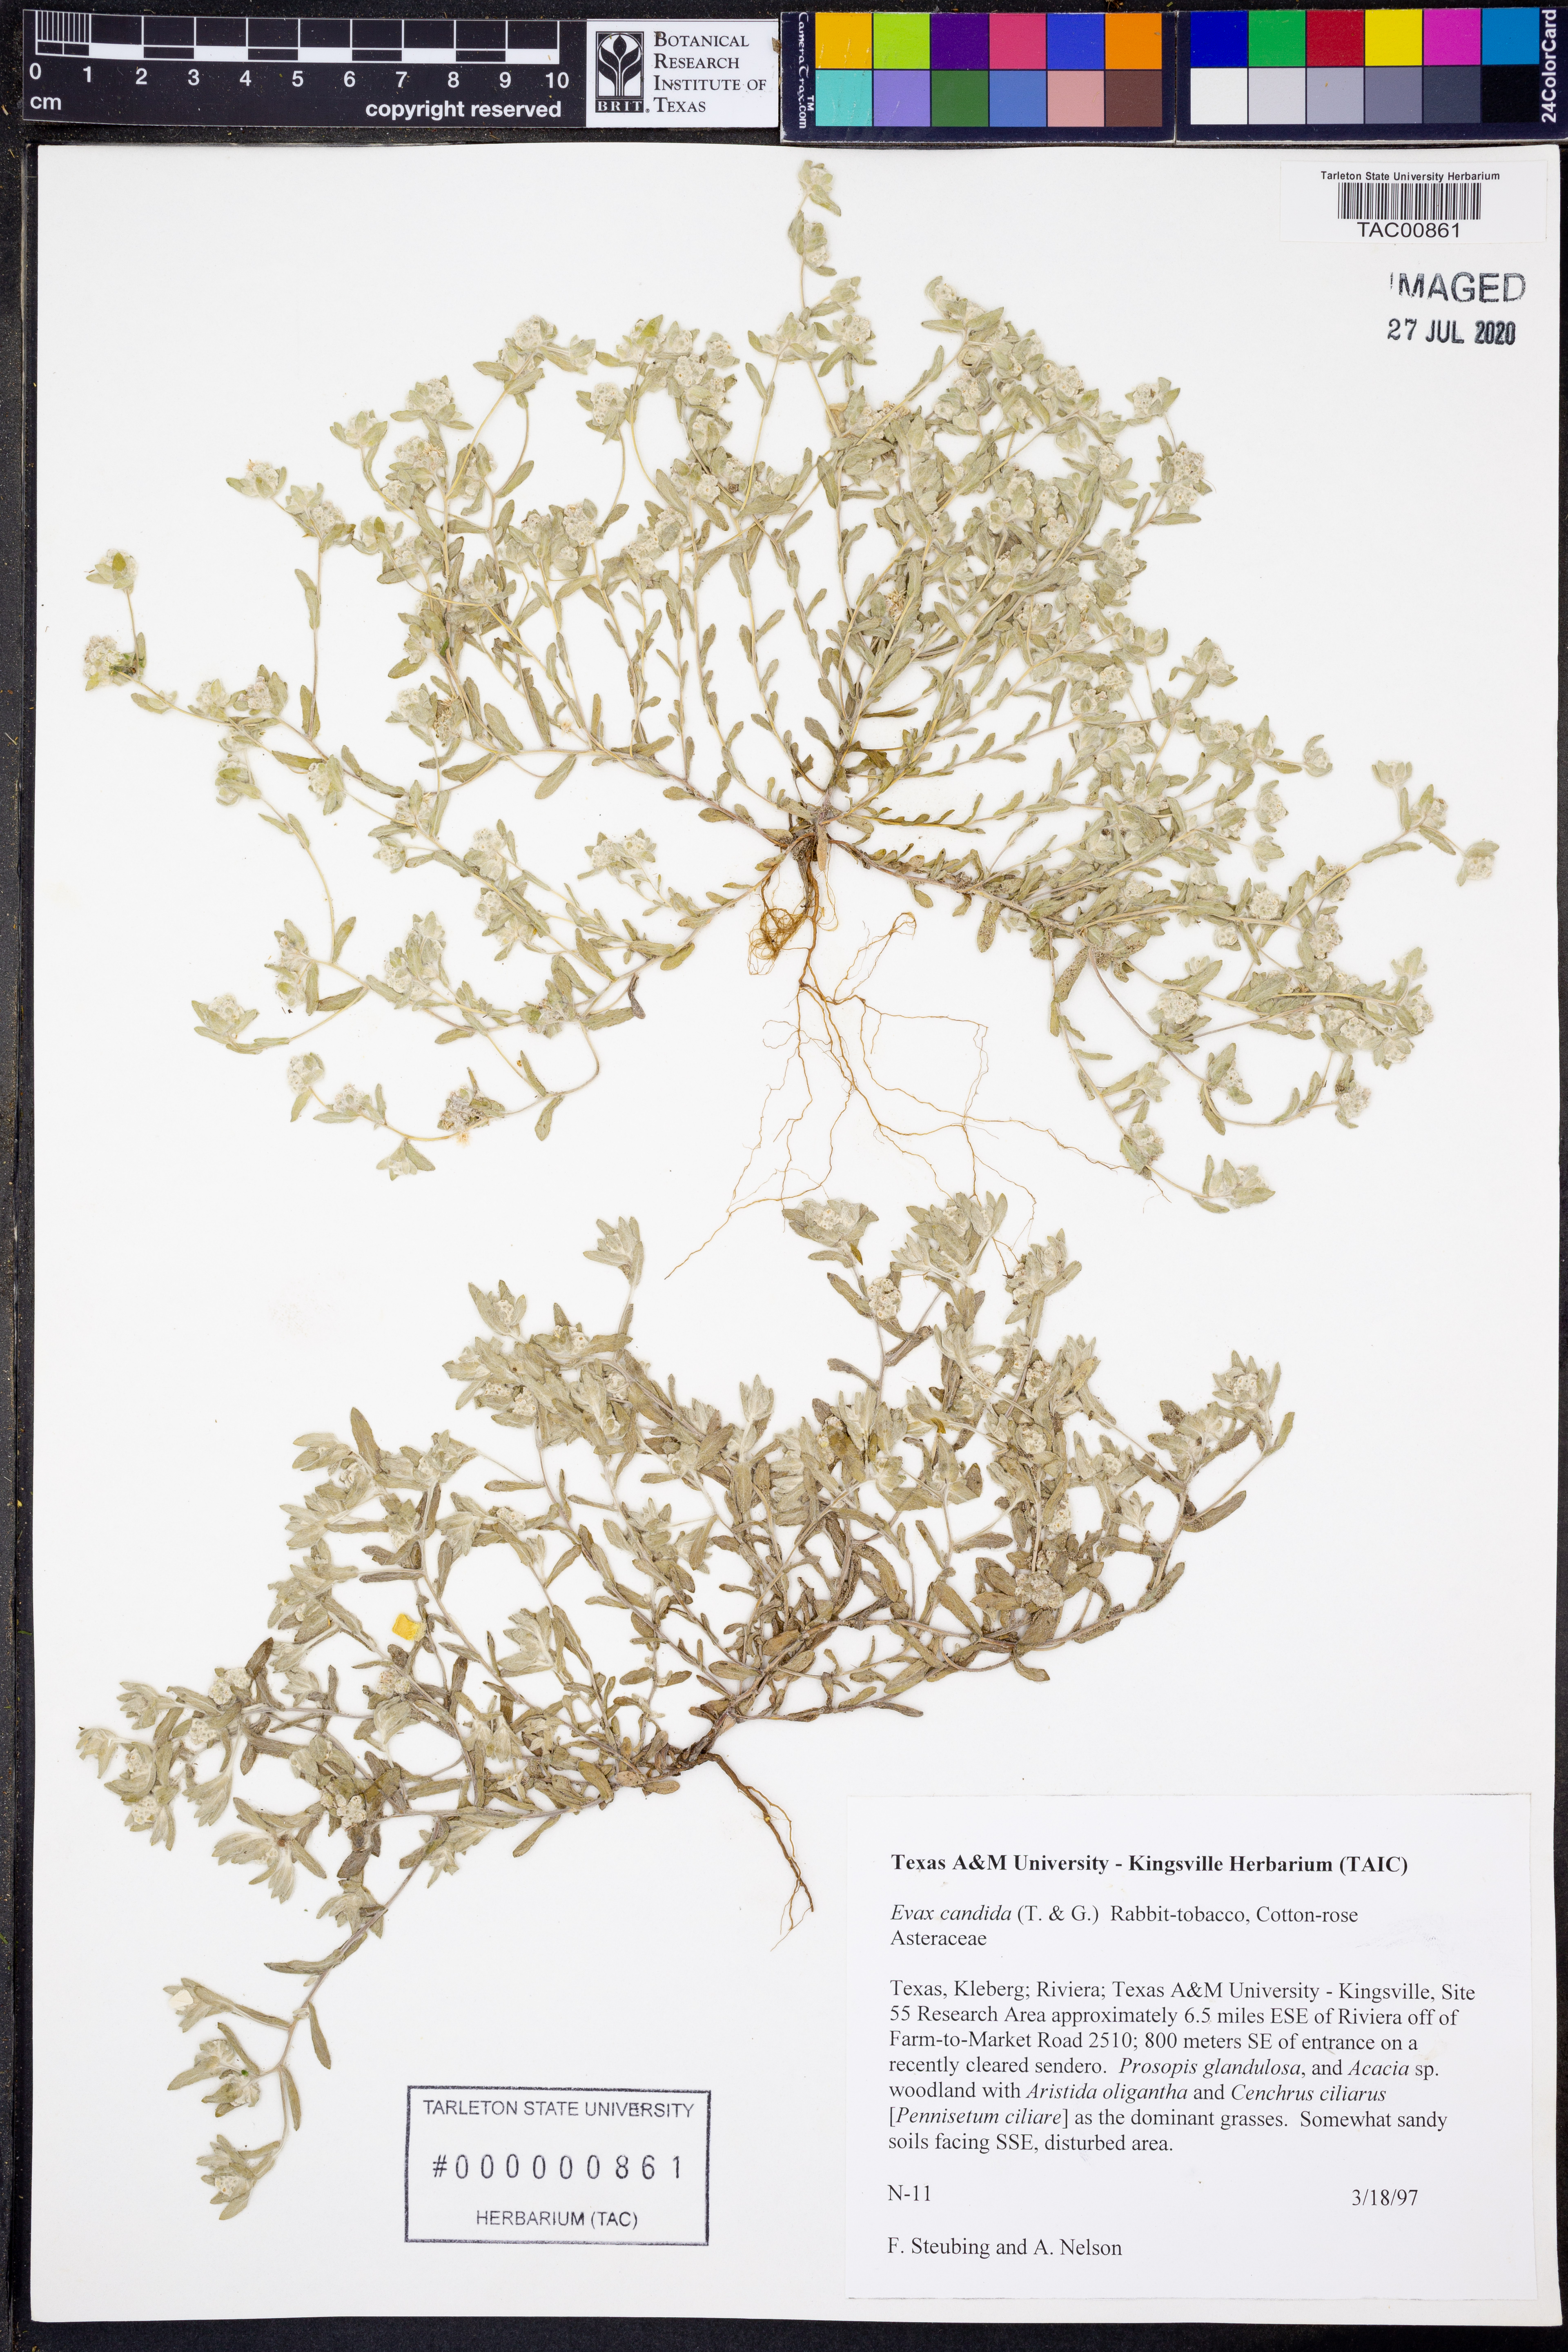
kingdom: Plantae
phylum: Tracheophyta
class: Magnoliopsida
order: Asterales
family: Asteraceae
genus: Diaperia
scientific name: Diaperia candida
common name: Silver rabbit-tobacco
